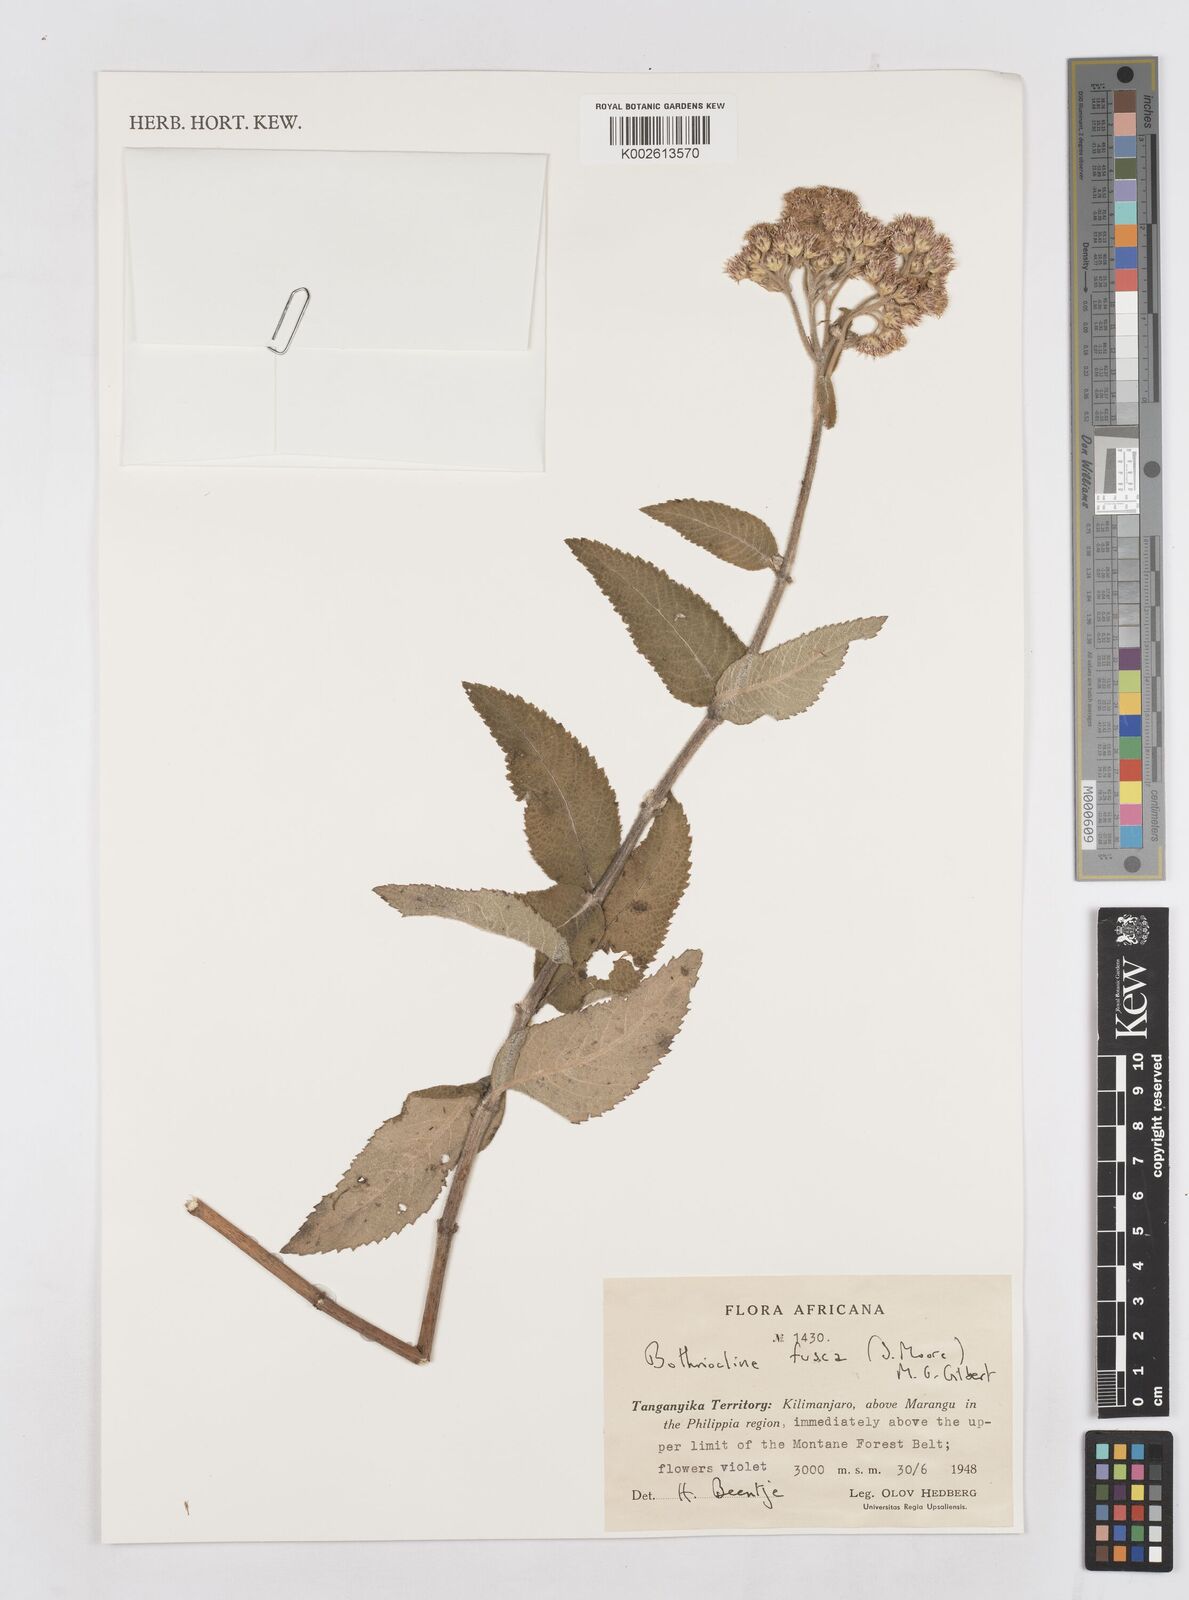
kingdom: Plantae
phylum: Tracheophyta
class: Magnoliopsida
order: Asterales
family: Asteraceae
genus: Bothriocline
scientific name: Bothriocline fusca
